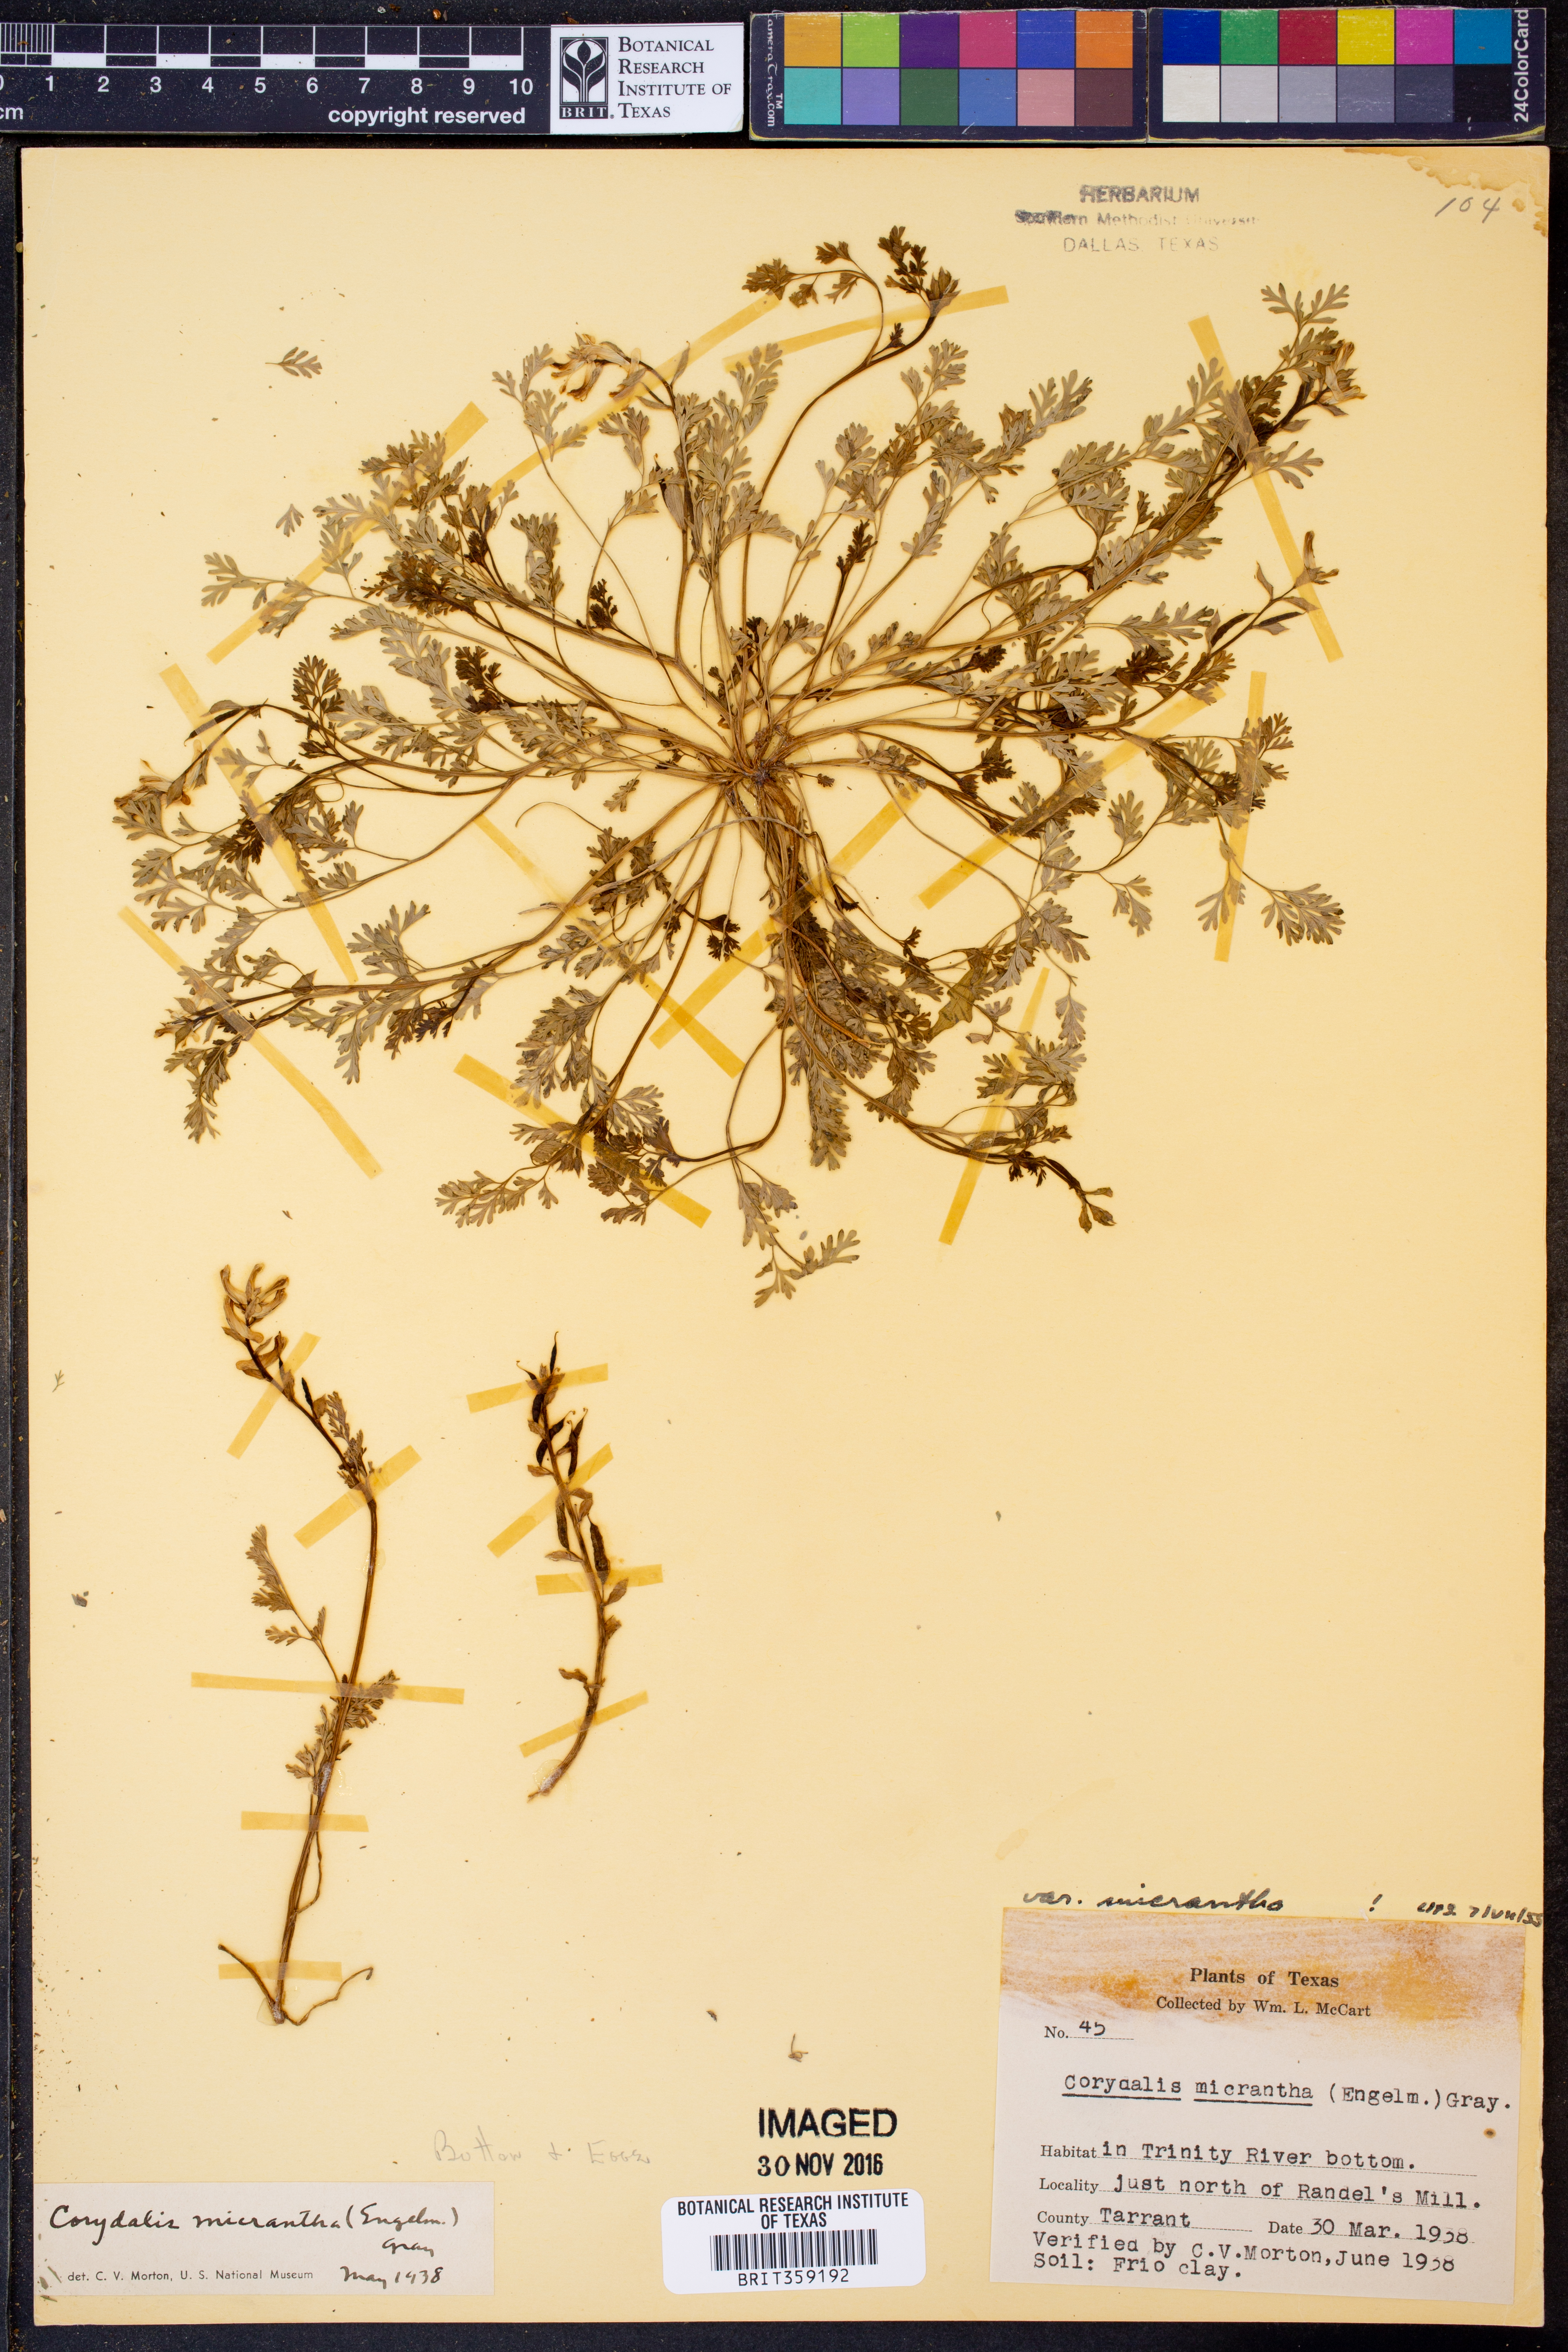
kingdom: Plantae
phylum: Tracheophyta
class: Magnoliopsida
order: Ranunculales
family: Papaveraceae
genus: Corydalis
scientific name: Corydalis micrantha
